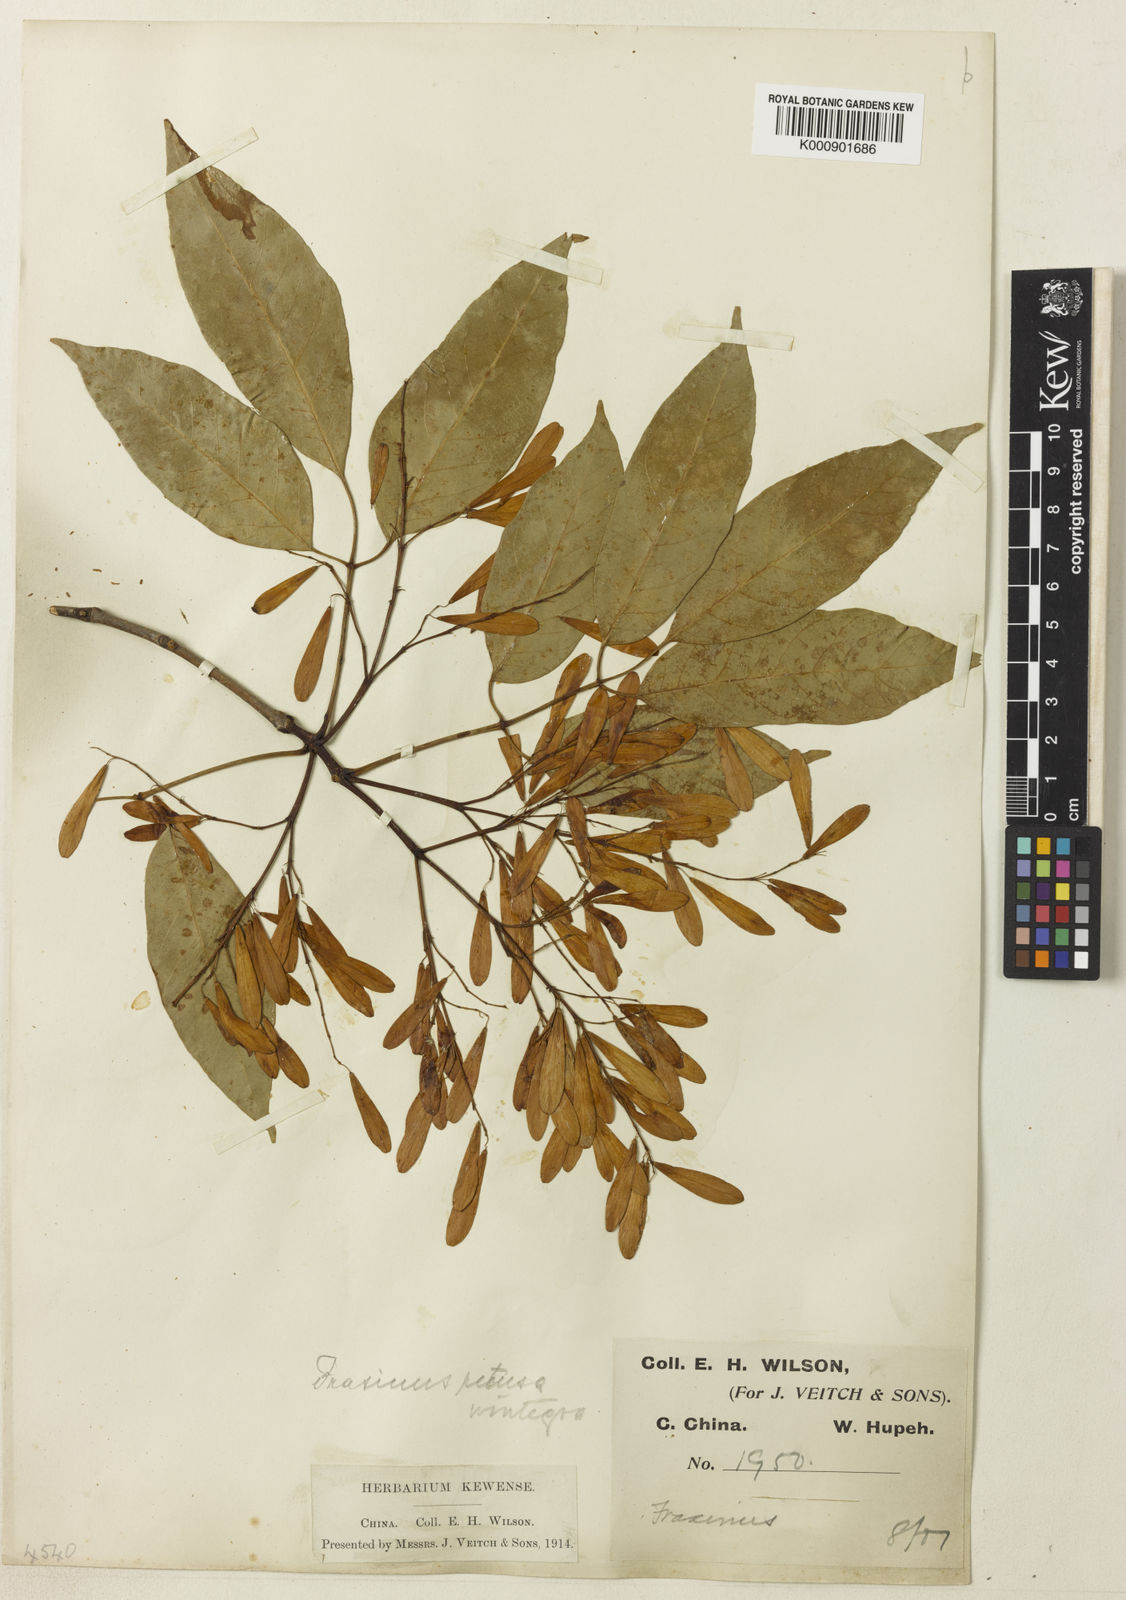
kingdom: Plantae
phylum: Tracheophyta
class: Magnoliopsida
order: Lamiales
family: Oleaceae
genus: Fraxinus
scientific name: Fraxinus floribunda
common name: East indian ash
